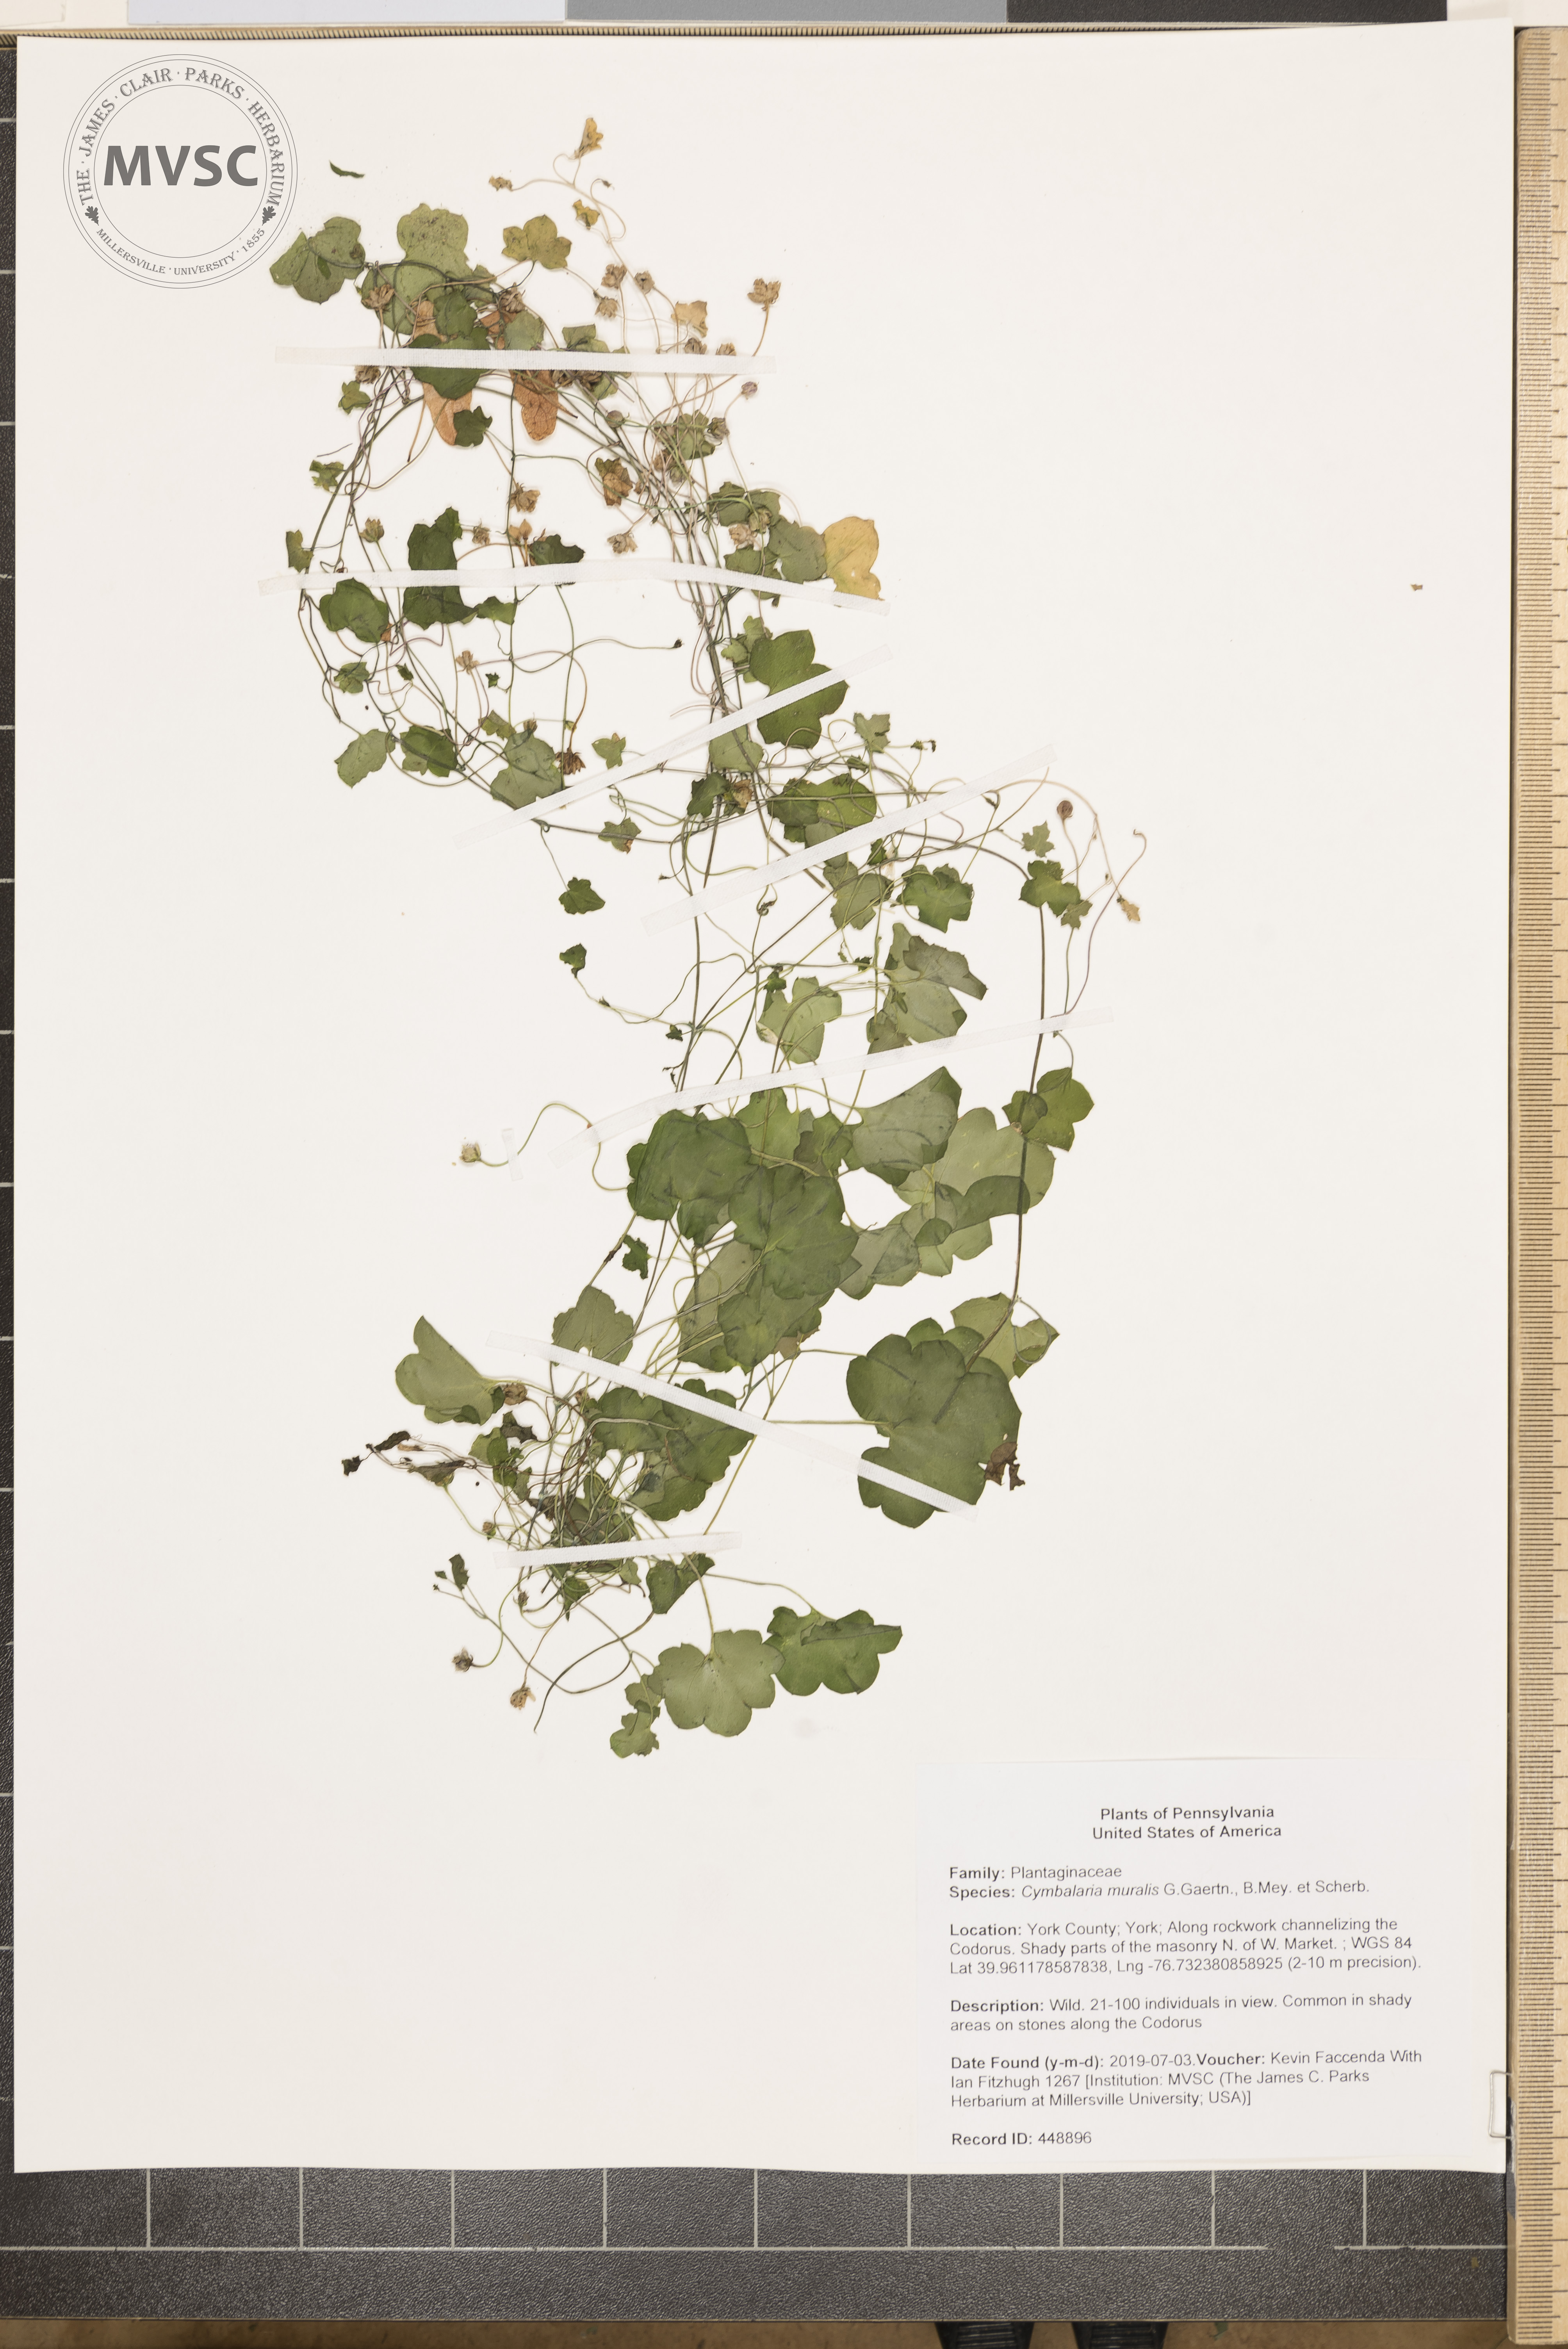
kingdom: Plantae
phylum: Tracheophyta
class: Magnoliopsida
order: Lamiales
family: Plantaginaceae
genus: Cymbalaria
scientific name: Cymbalaria muralis
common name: Ivy-leaved toadflax
